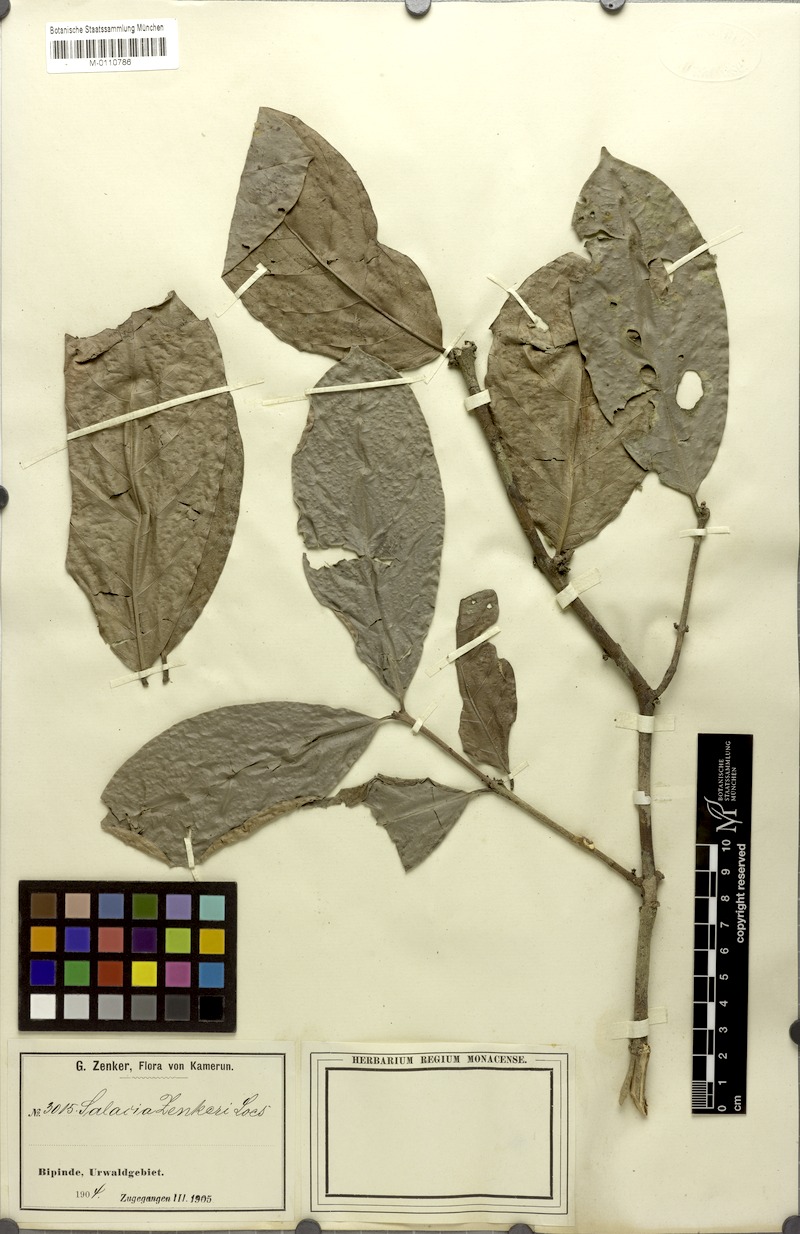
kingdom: Plantae
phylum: Tracheophyta
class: Magnoliopsida
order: Celastrales
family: Celastraceae
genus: Salacia
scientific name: Salacia zenkeri
